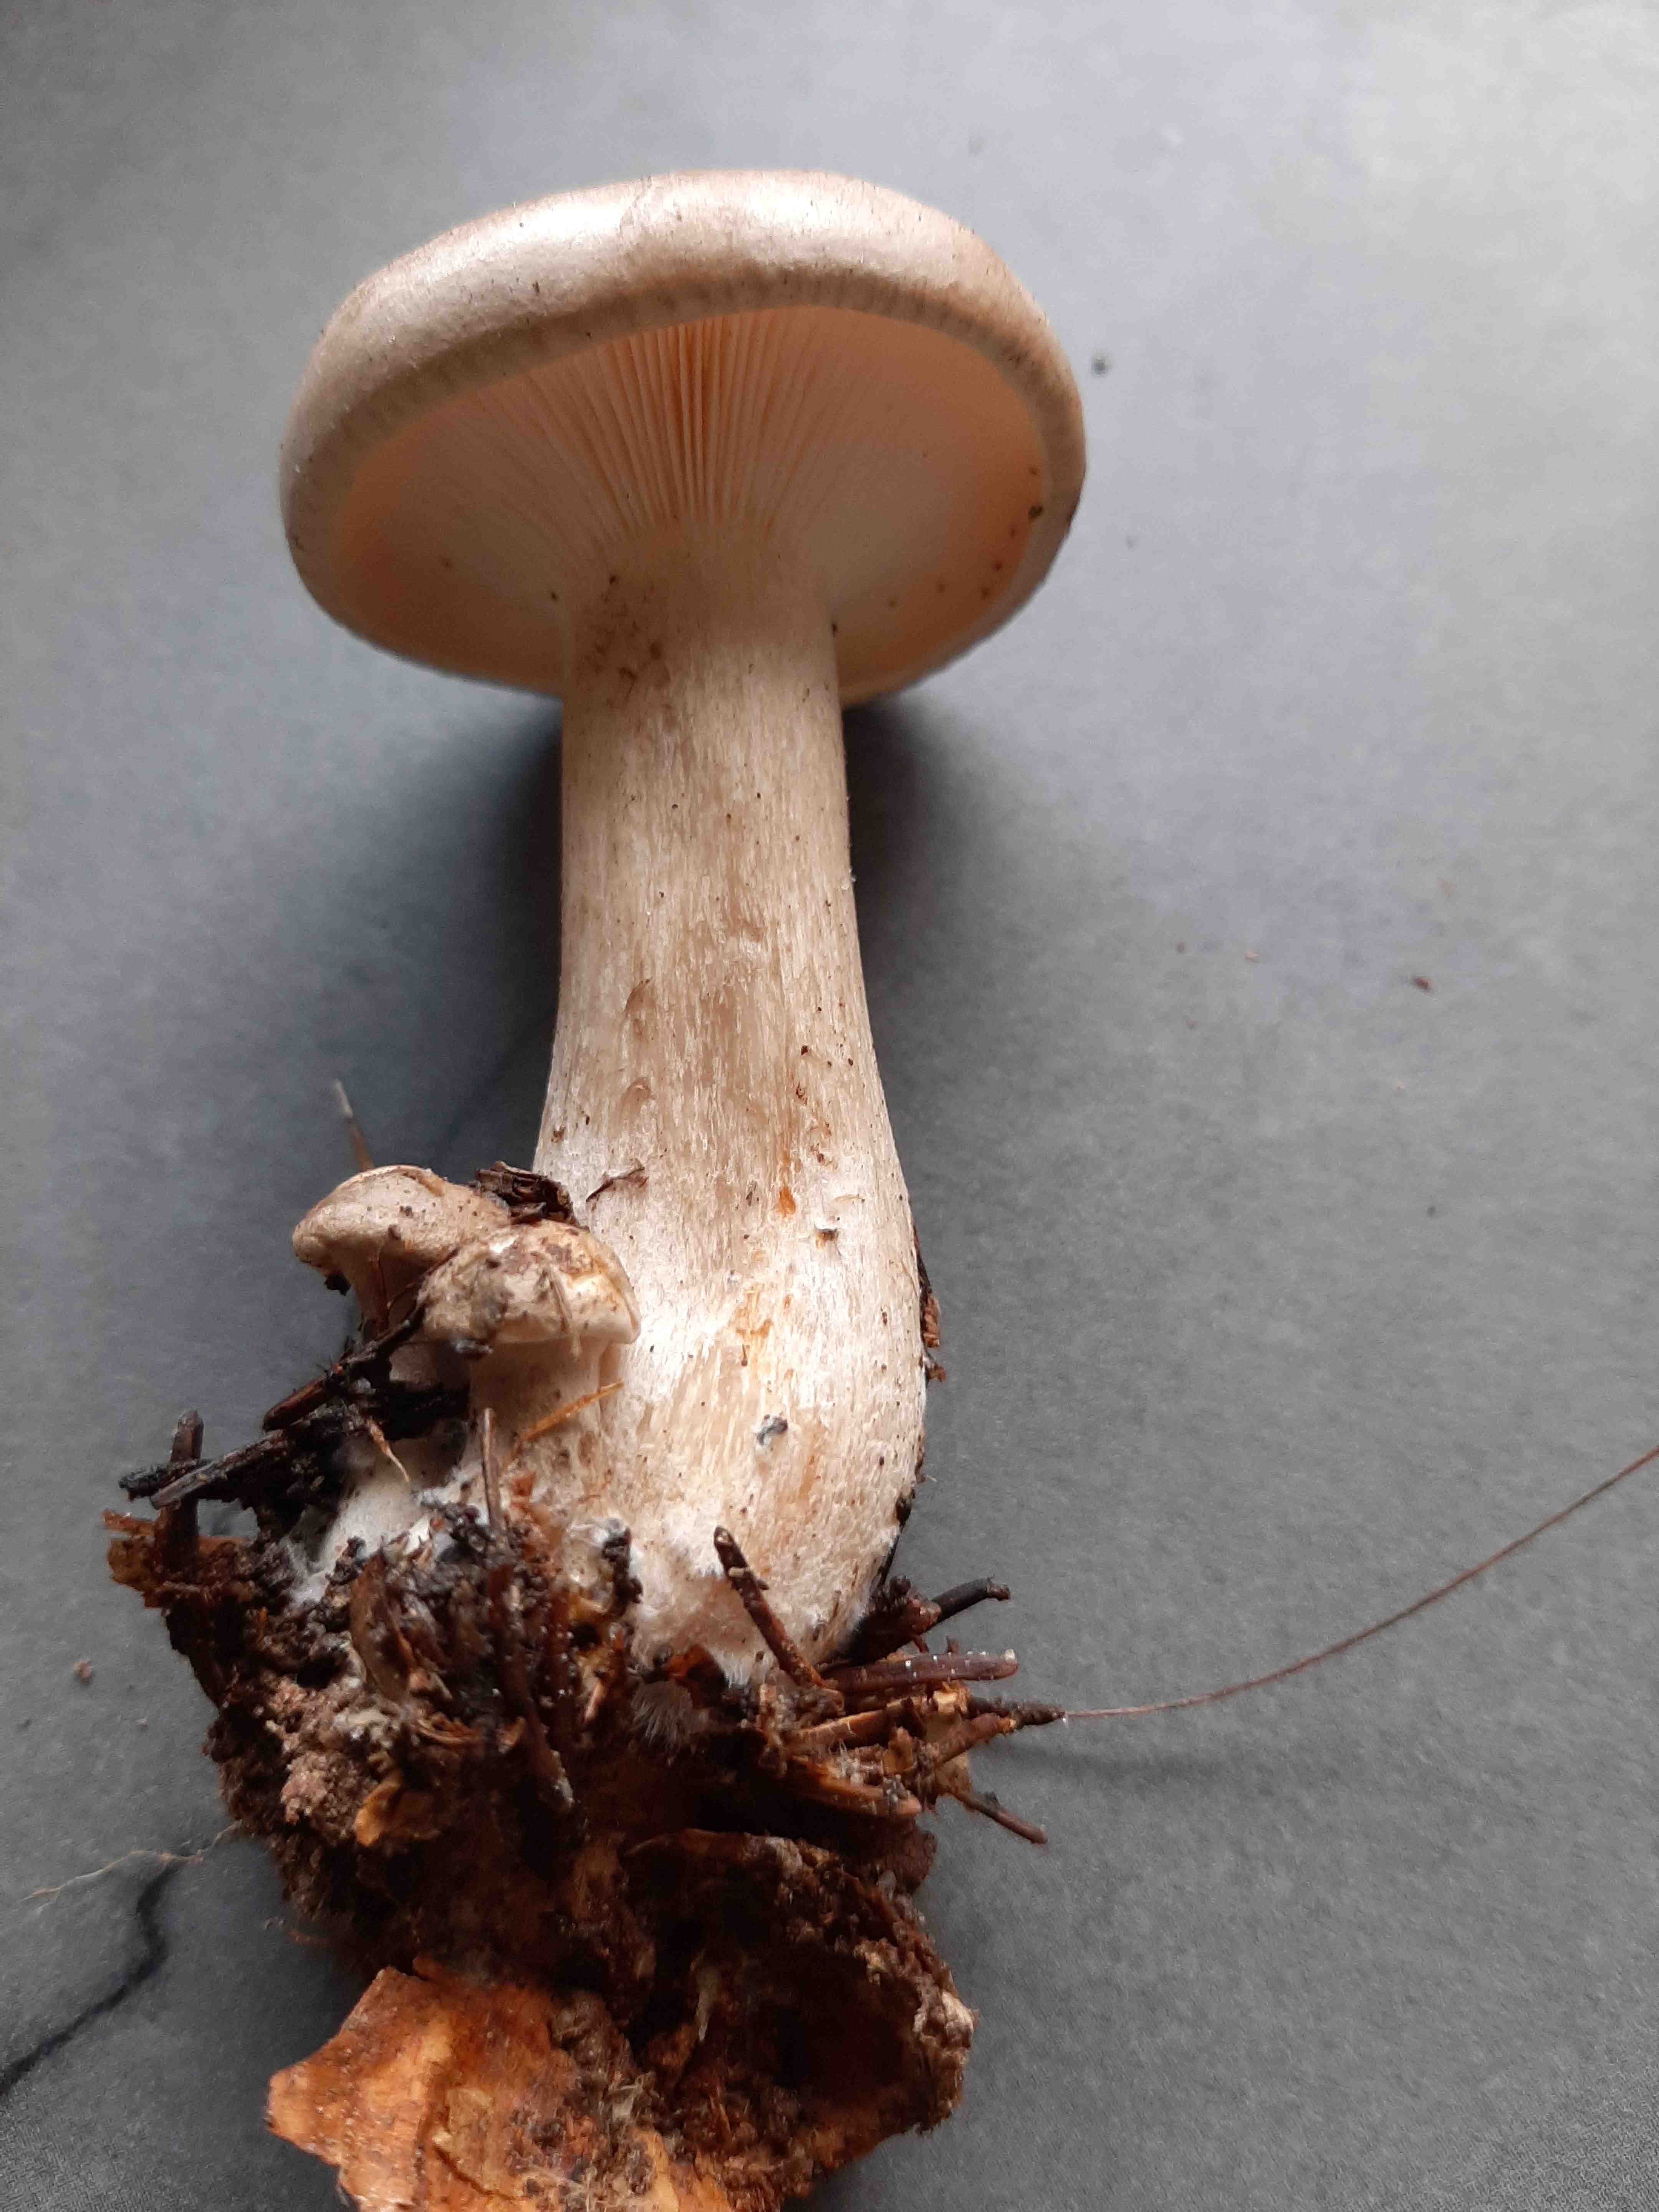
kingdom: Fungi
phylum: Basidiomycota
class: Agaricomycetes
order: Agaricales
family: Tricholomataceae
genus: Clitocybe
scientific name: Clitocybe nebularis
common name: tåge-tragthat
